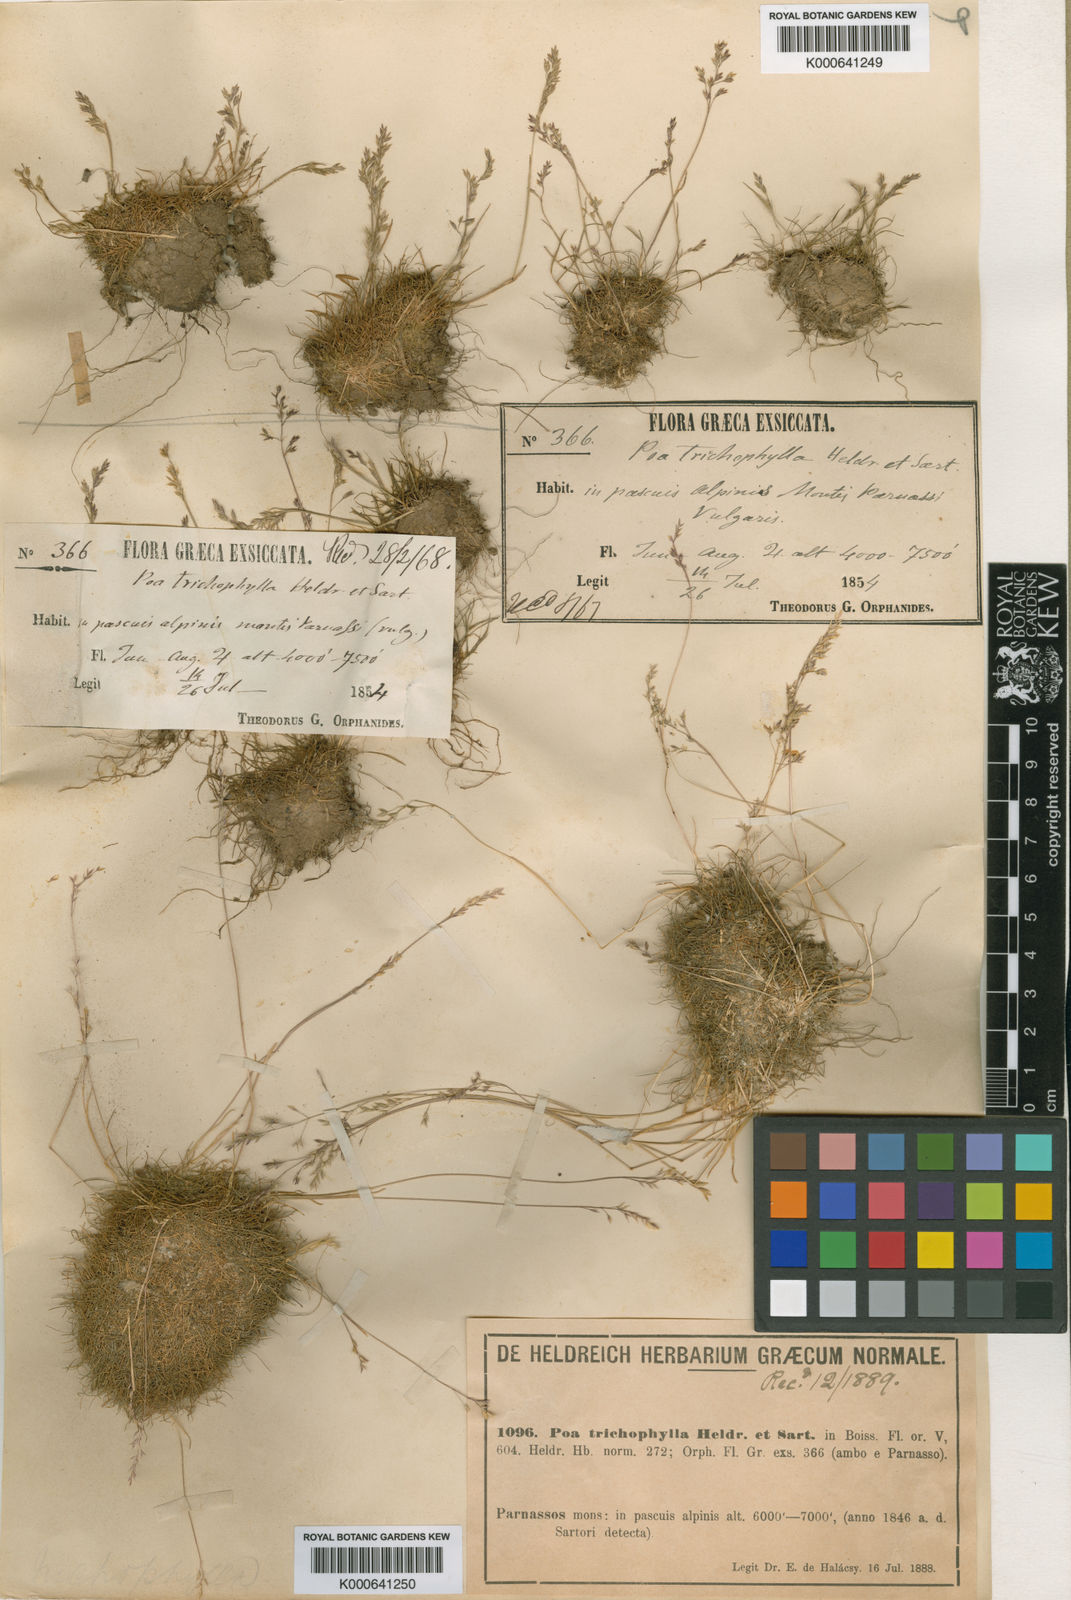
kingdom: Plantae
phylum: Tracheophyta
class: Liliopsida
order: Poales
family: Poaceae
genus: Poa
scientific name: Poa trichophylla
